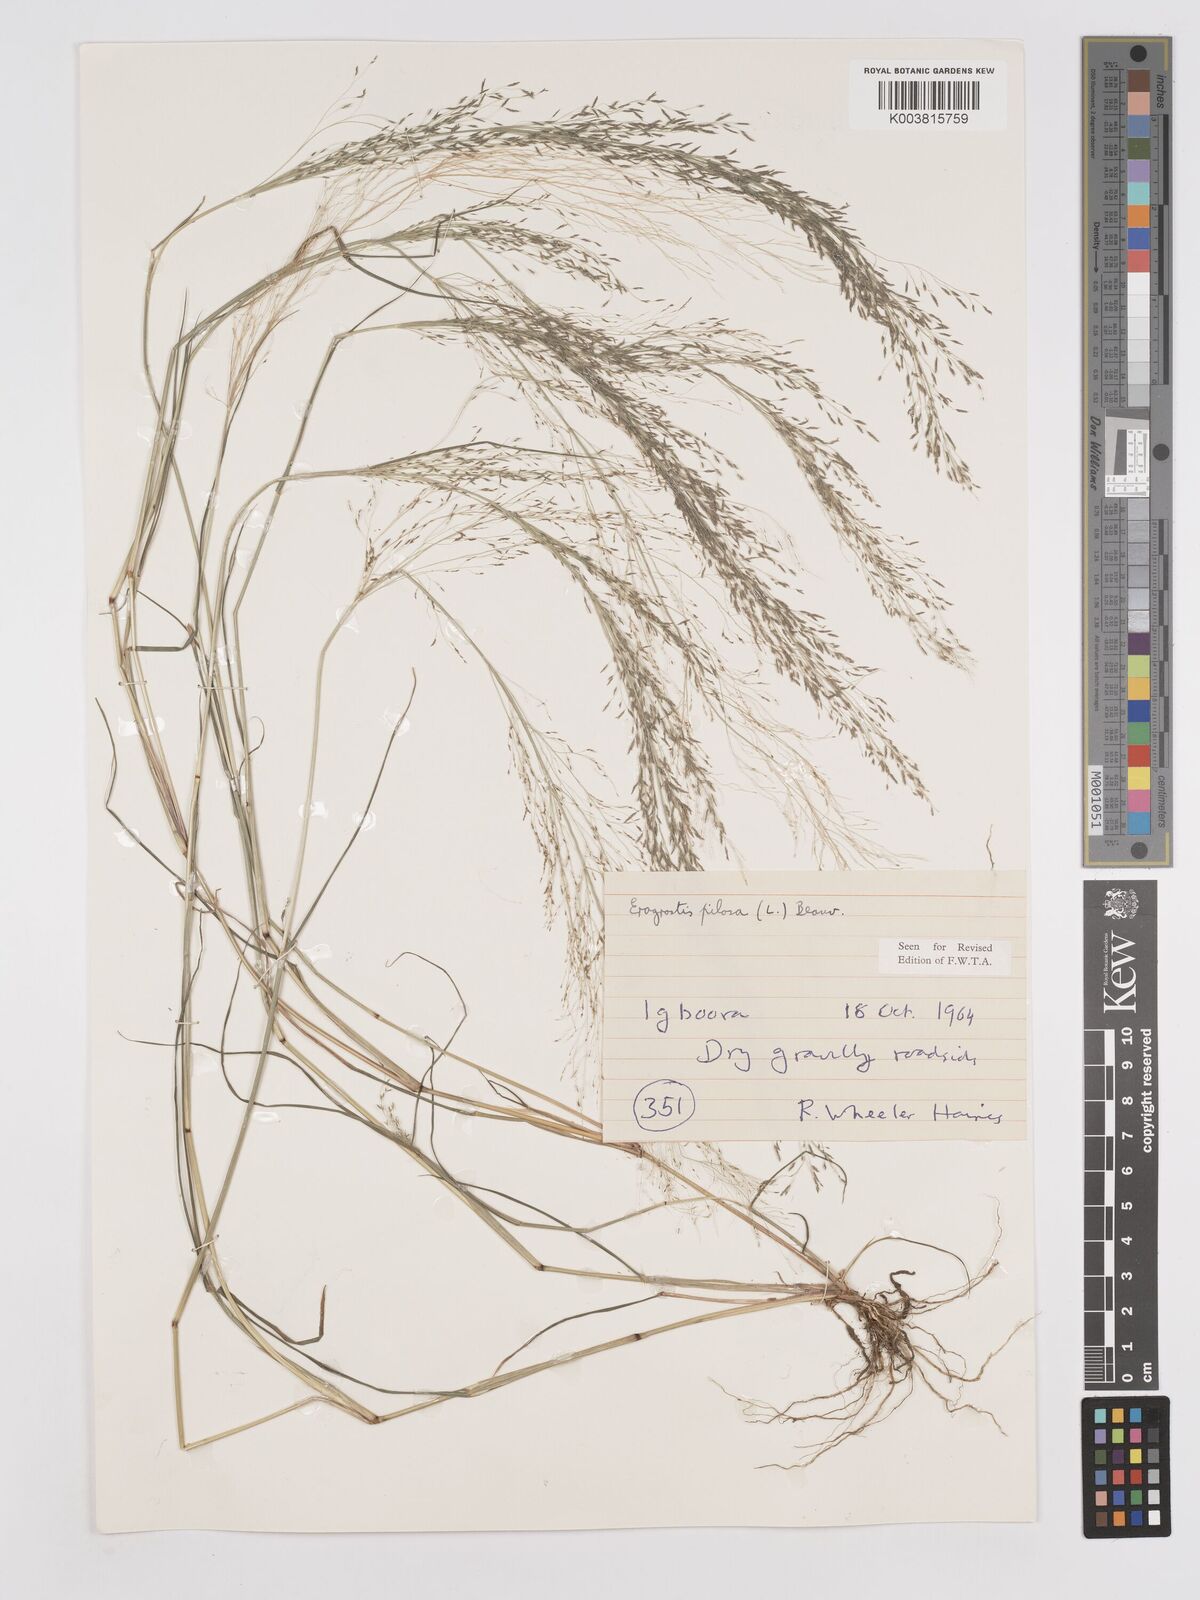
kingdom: Plantae
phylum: Tracheophyta
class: Liliopsida
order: Poales
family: Poaceae
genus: Eragrostis
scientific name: Eragrostis pilosa
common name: Indian lovegrass
